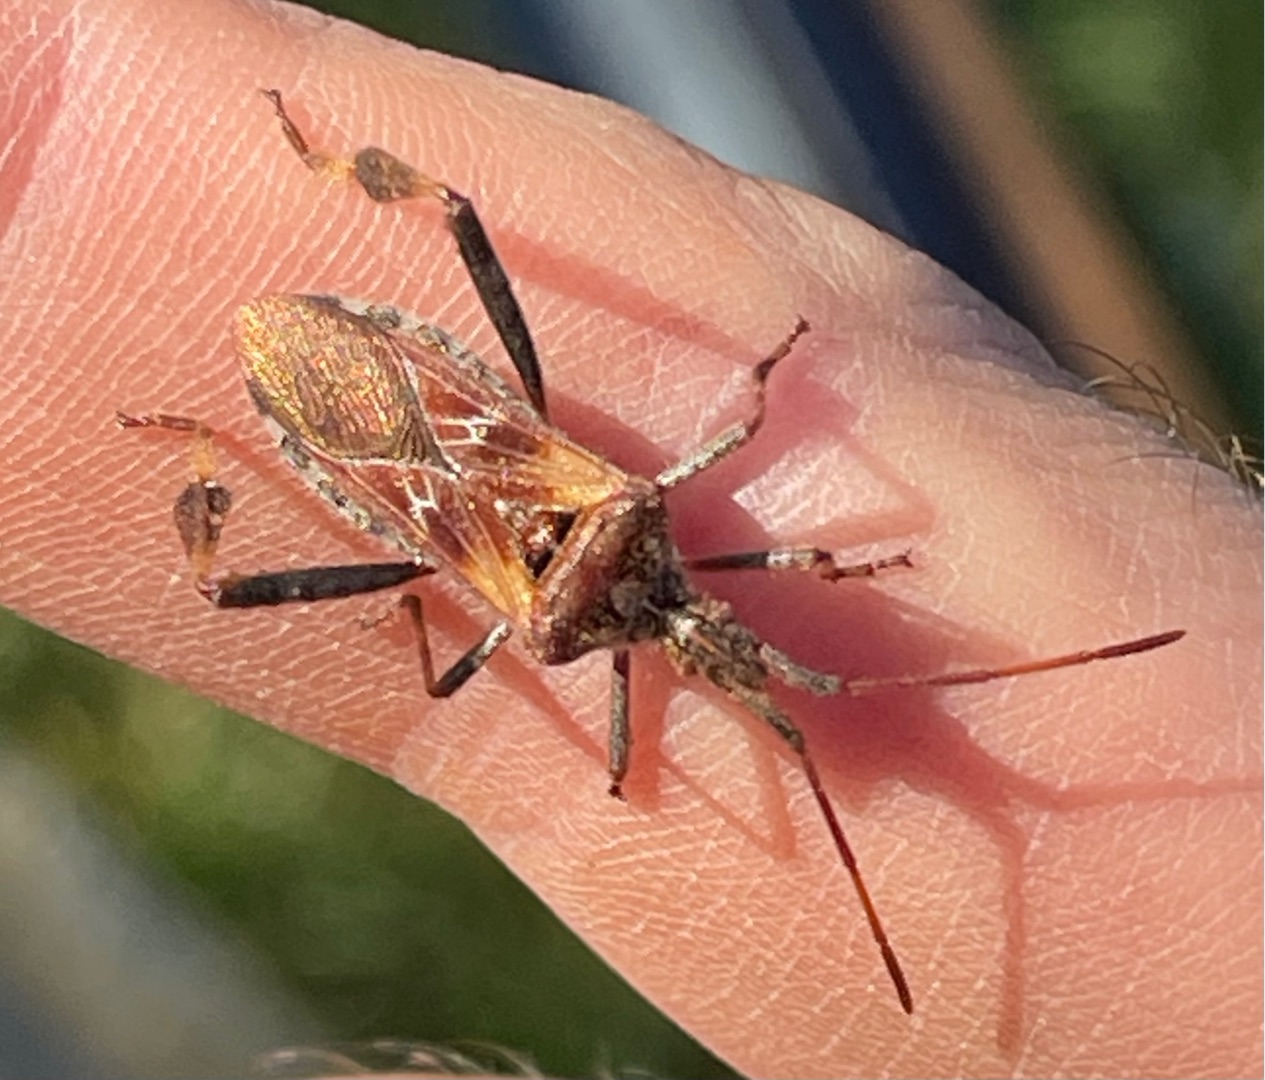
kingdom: Animalia
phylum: Arthropoda
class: Insecta
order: Hemiptera
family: Coreidae
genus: Leptoglossus
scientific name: Leptoglossus occidentalis
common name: Amerikansk fyrretæge
